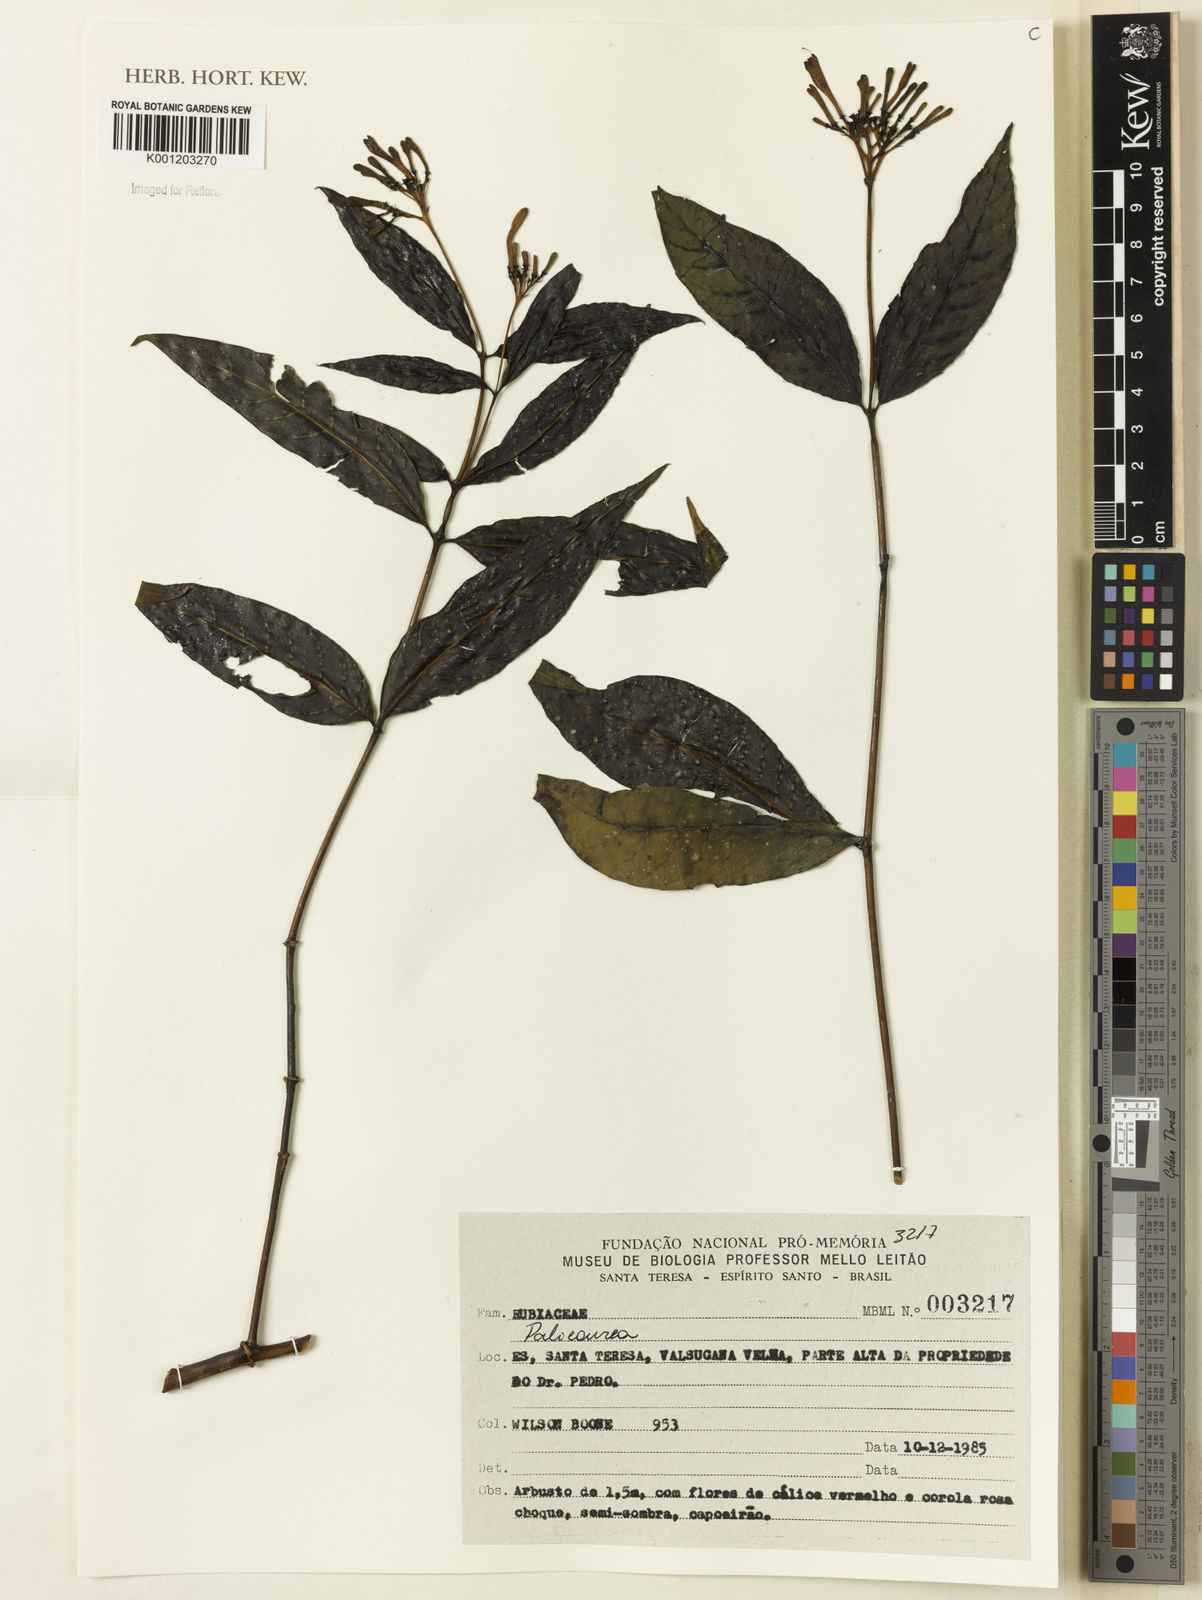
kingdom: Plantae
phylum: Tracheophyta
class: Magnoliopsida
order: Gentianales
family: Rubiaceae
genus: Palicourea
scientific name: Palicourea
